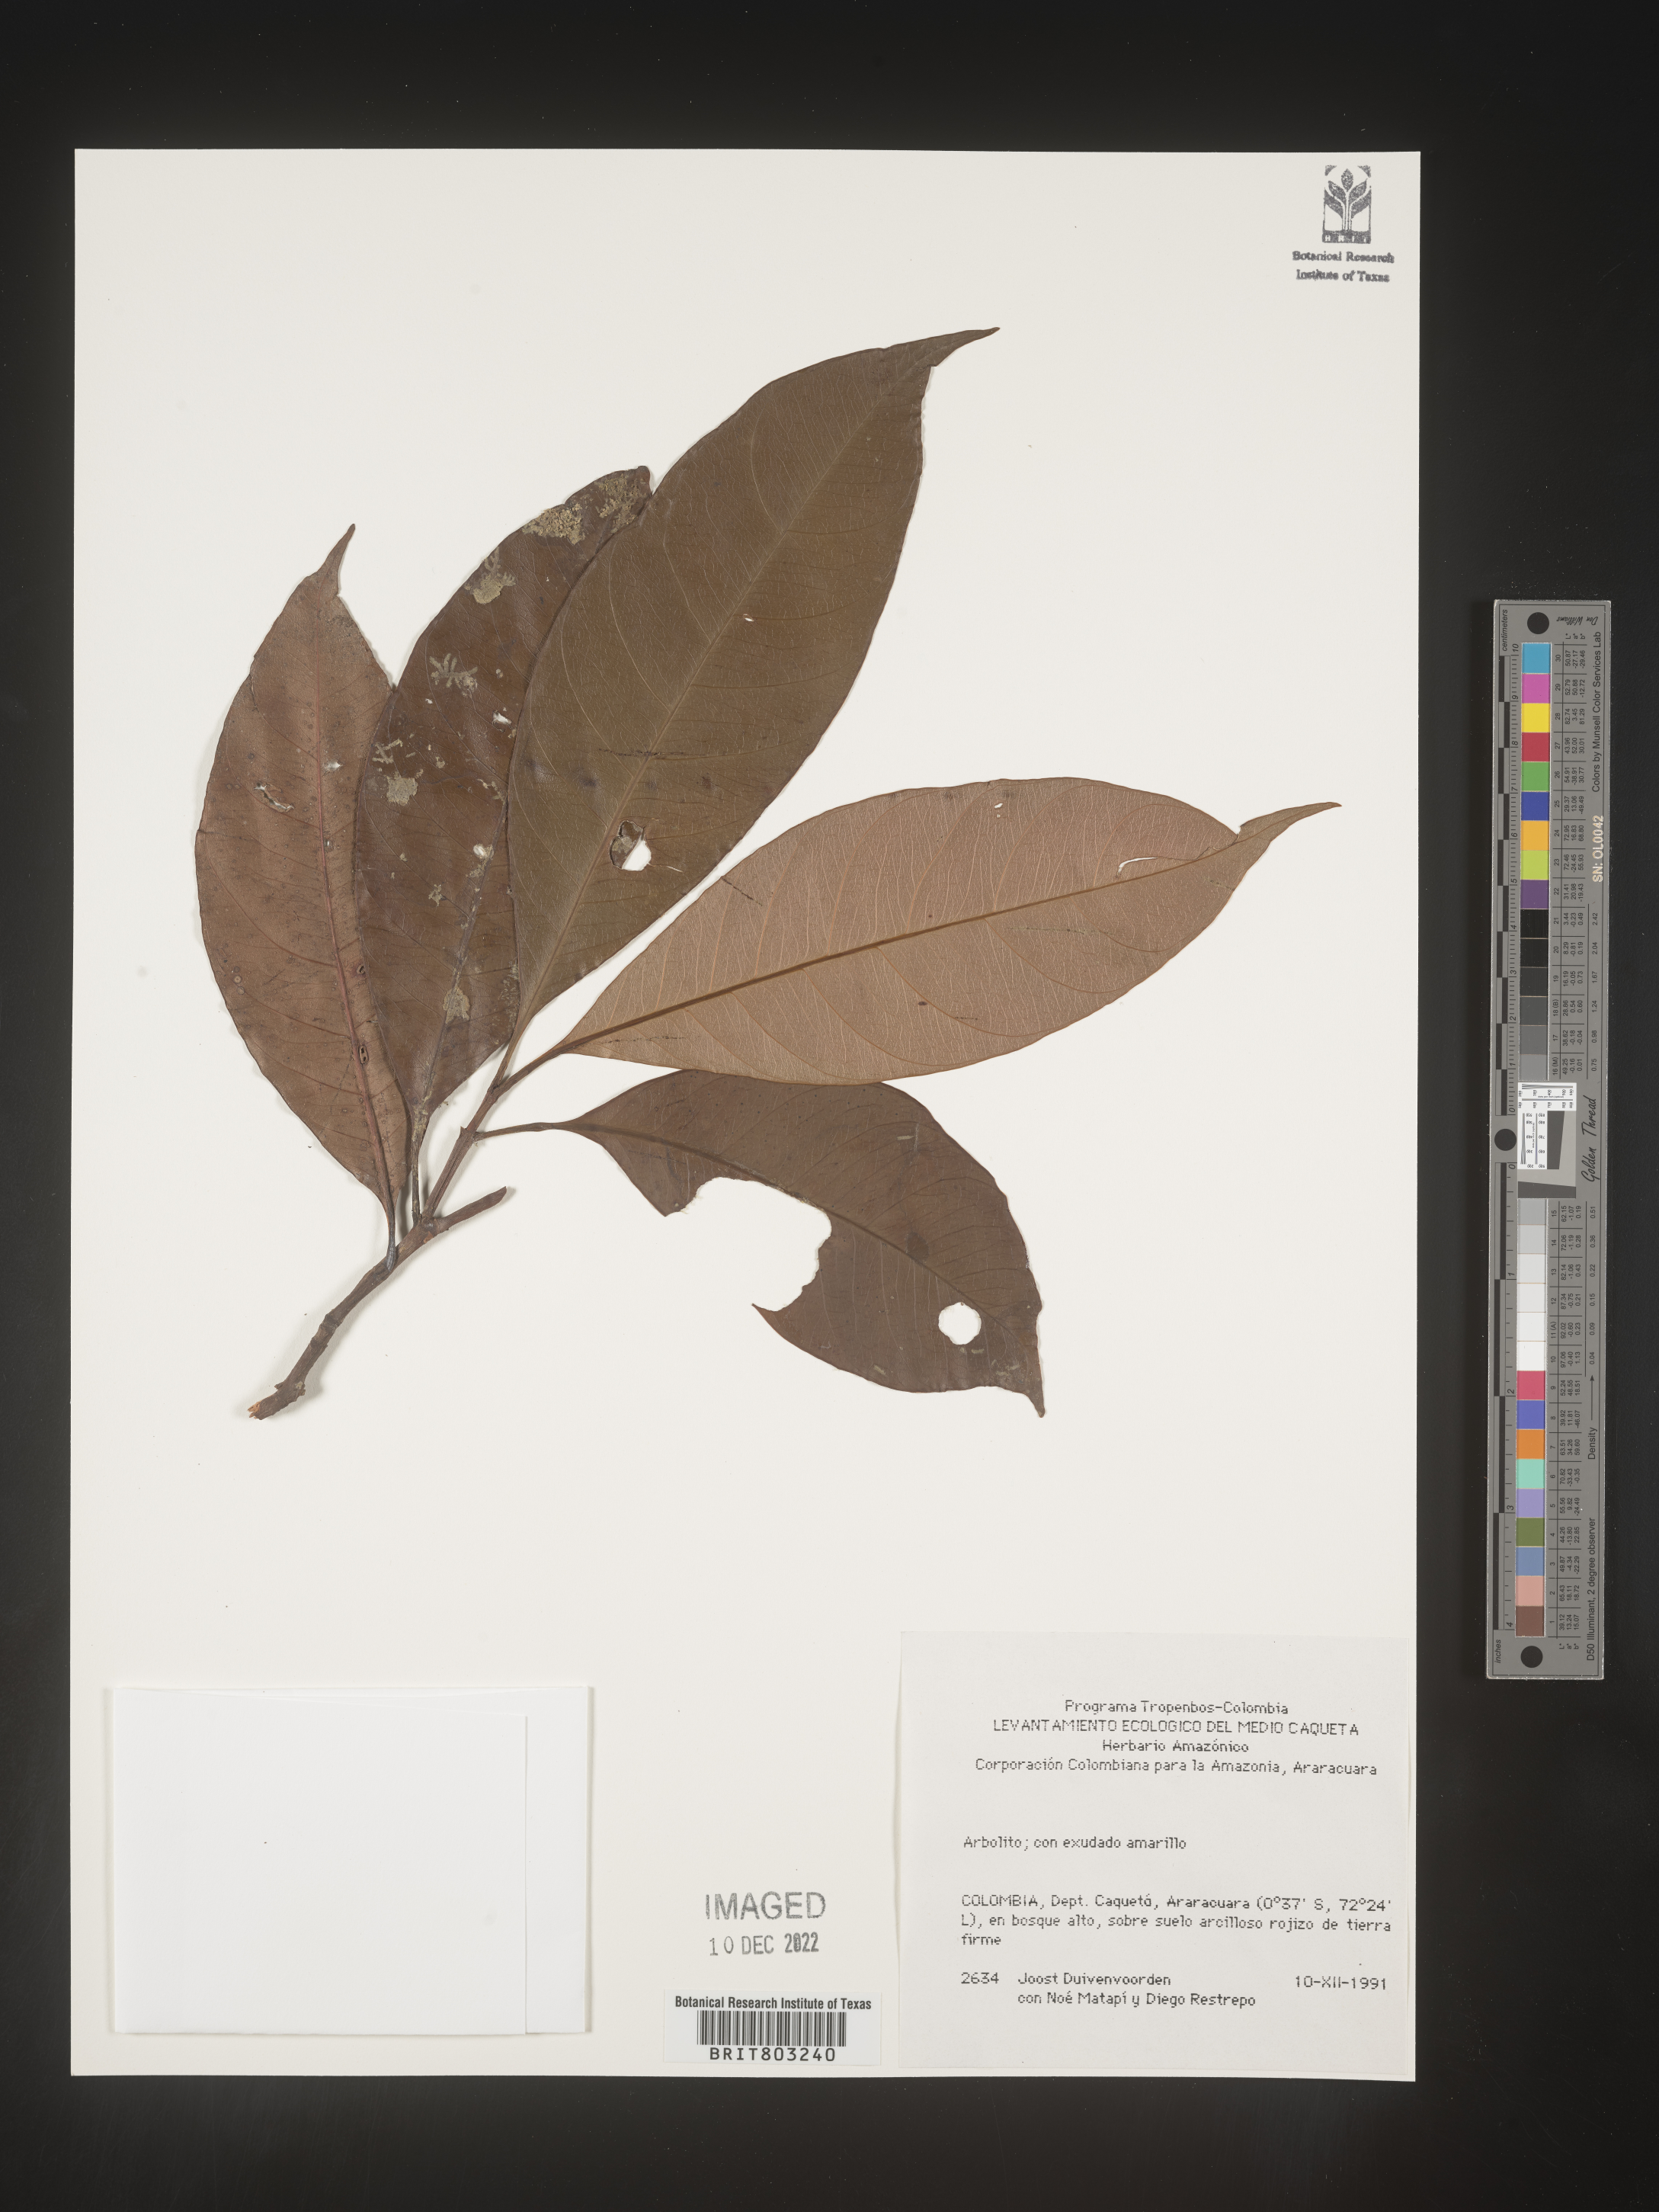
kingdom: Plantae
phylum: Tracheophyta
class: Magnoliopsida
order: Malpighiales
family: Clusiaceae
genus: Tovomita
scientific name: Tovomita
